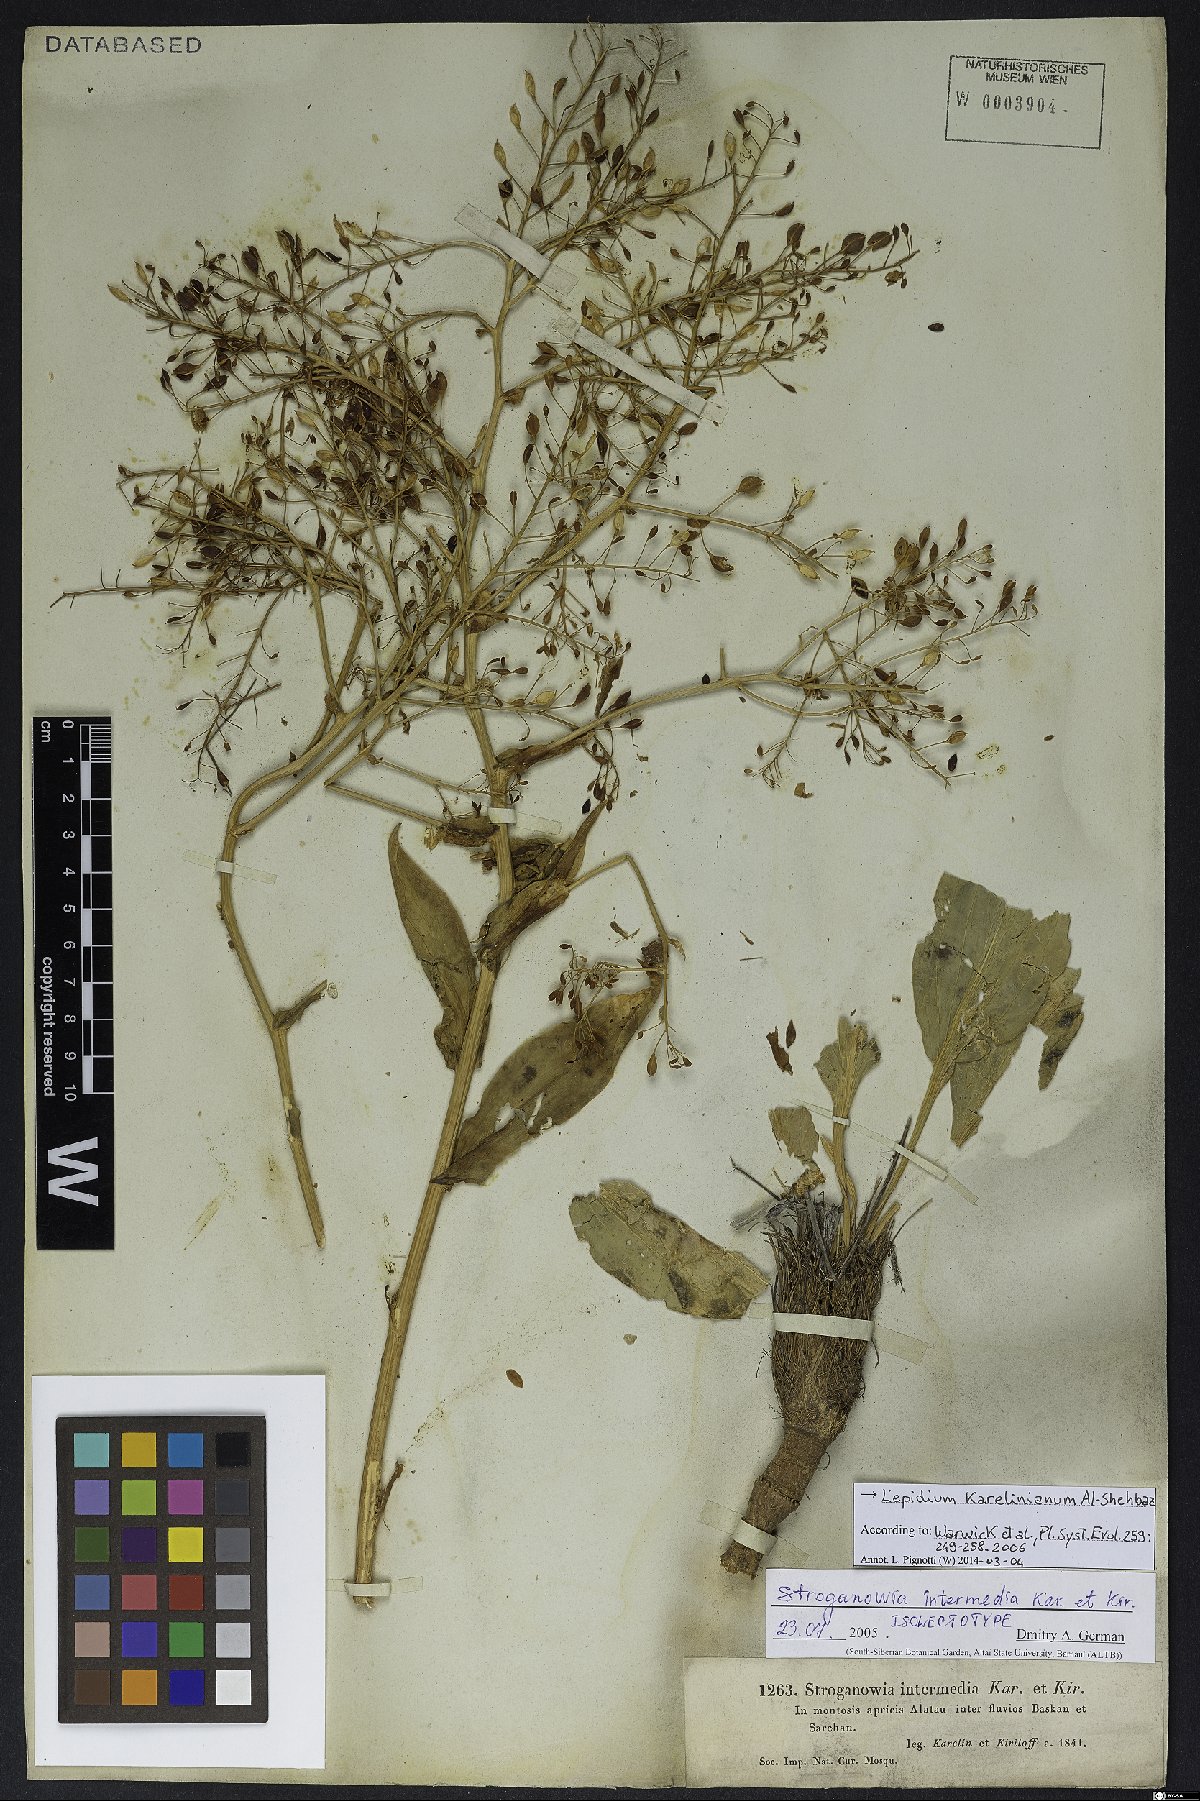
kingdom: Plantae
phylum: Tracheophyta
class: Magnoliopsida
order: Brassicales
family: Brassicaceae
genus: Lepidium
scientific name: Lepidium karelinianum
